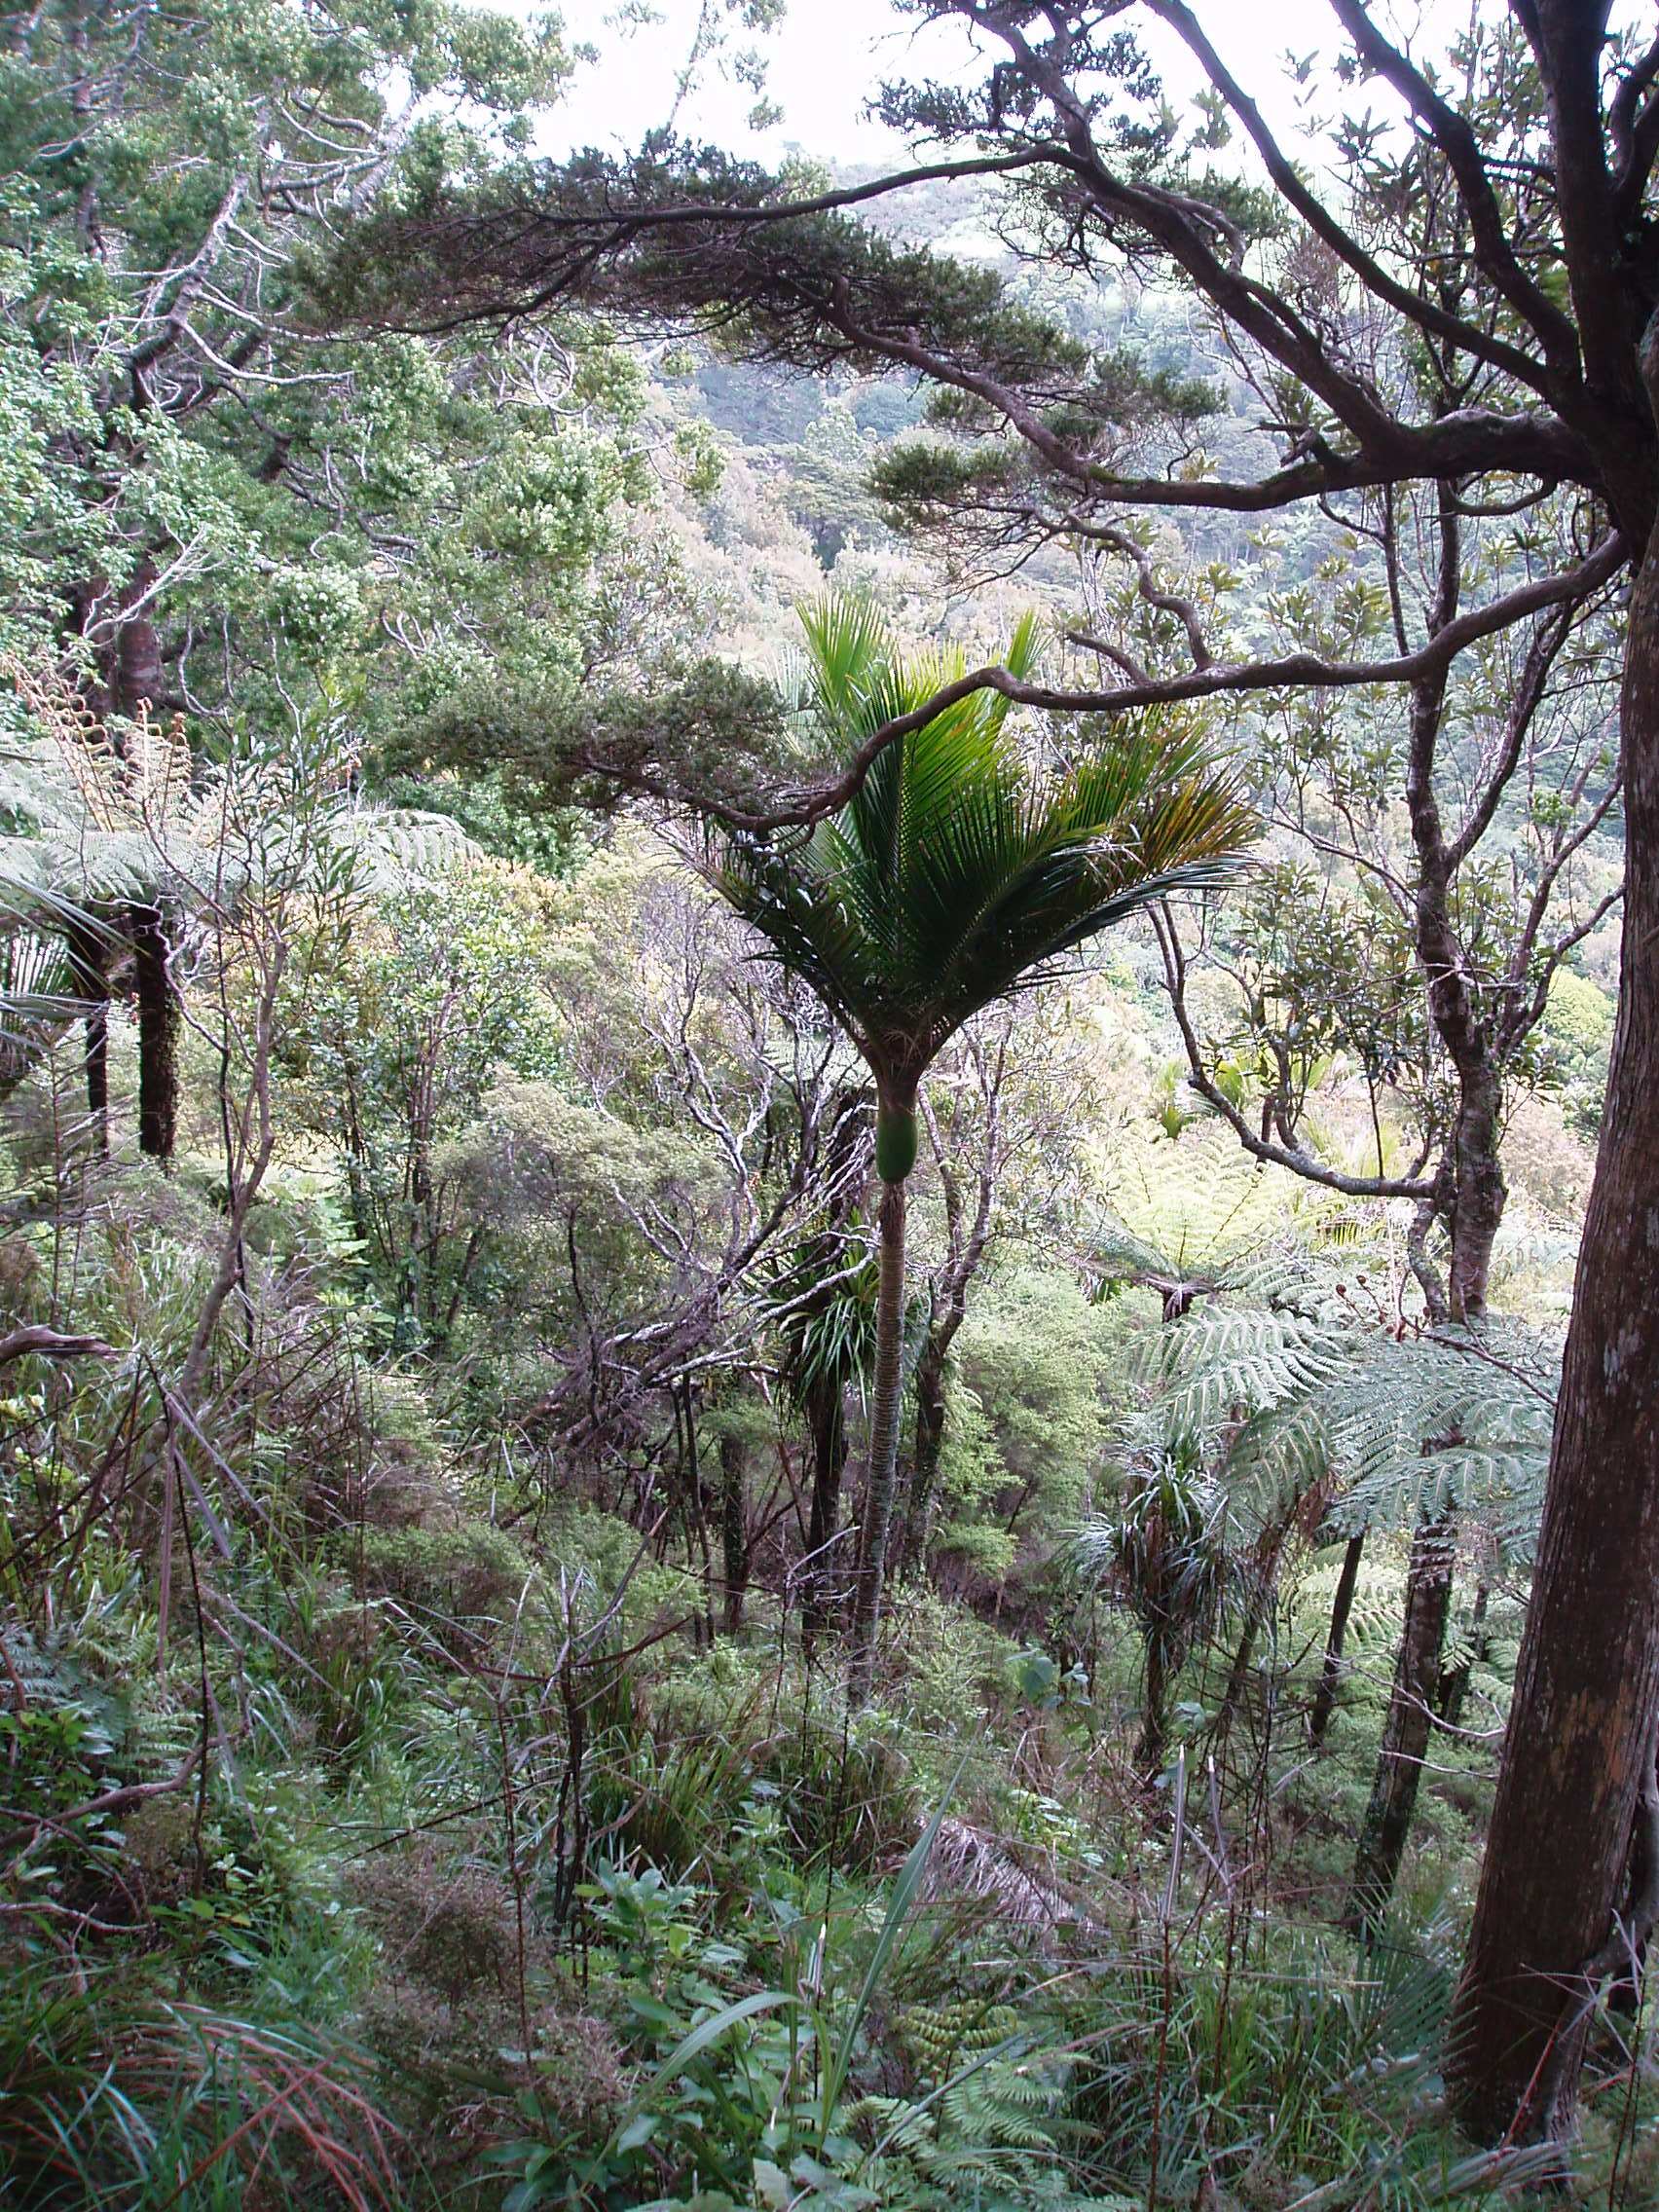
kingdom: Plantae
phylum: Tracheophyta
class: Magnoliopsida
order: Rosales
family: Rosaceae
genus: Prunus
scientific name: Prunus serrulata
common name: Japanese cherry
